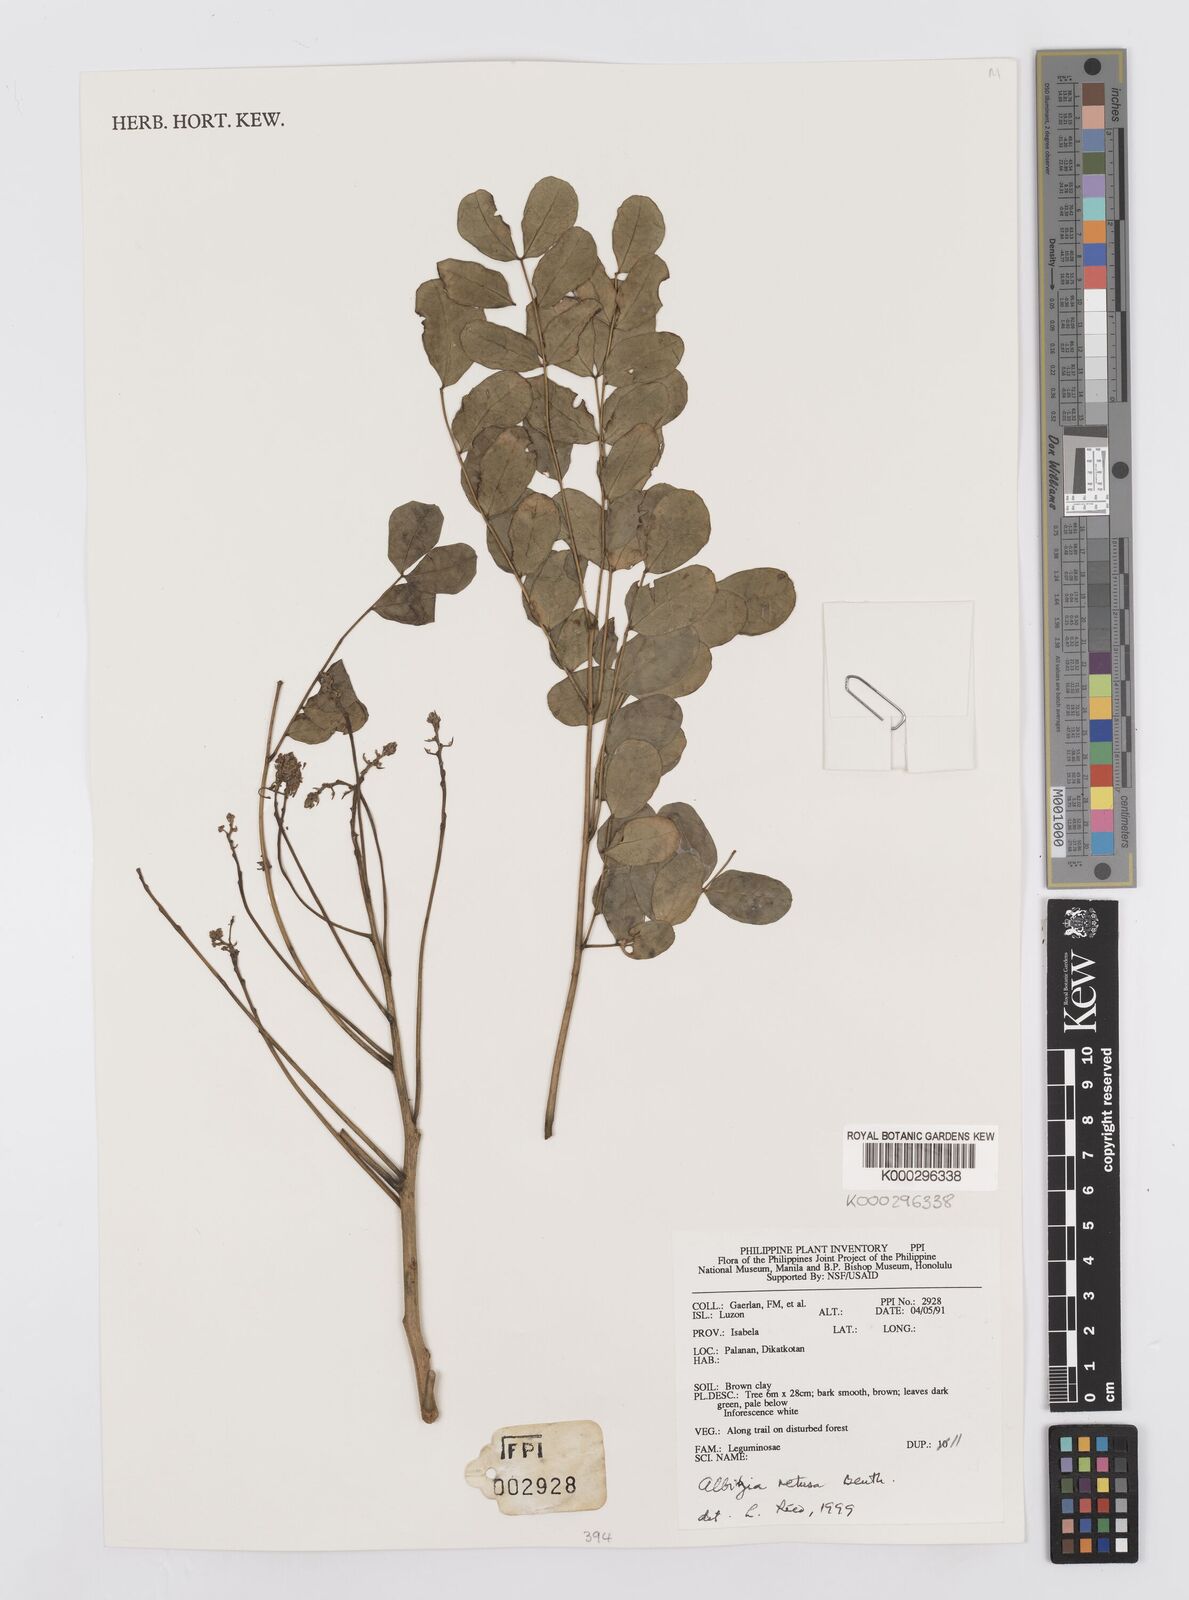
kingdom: Plantae
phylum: Tracheophyta
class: Magnoliopsida
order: Fabales
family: Fabaceae
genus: Albizia
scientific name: Albizia retusa
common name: Sea albizia
